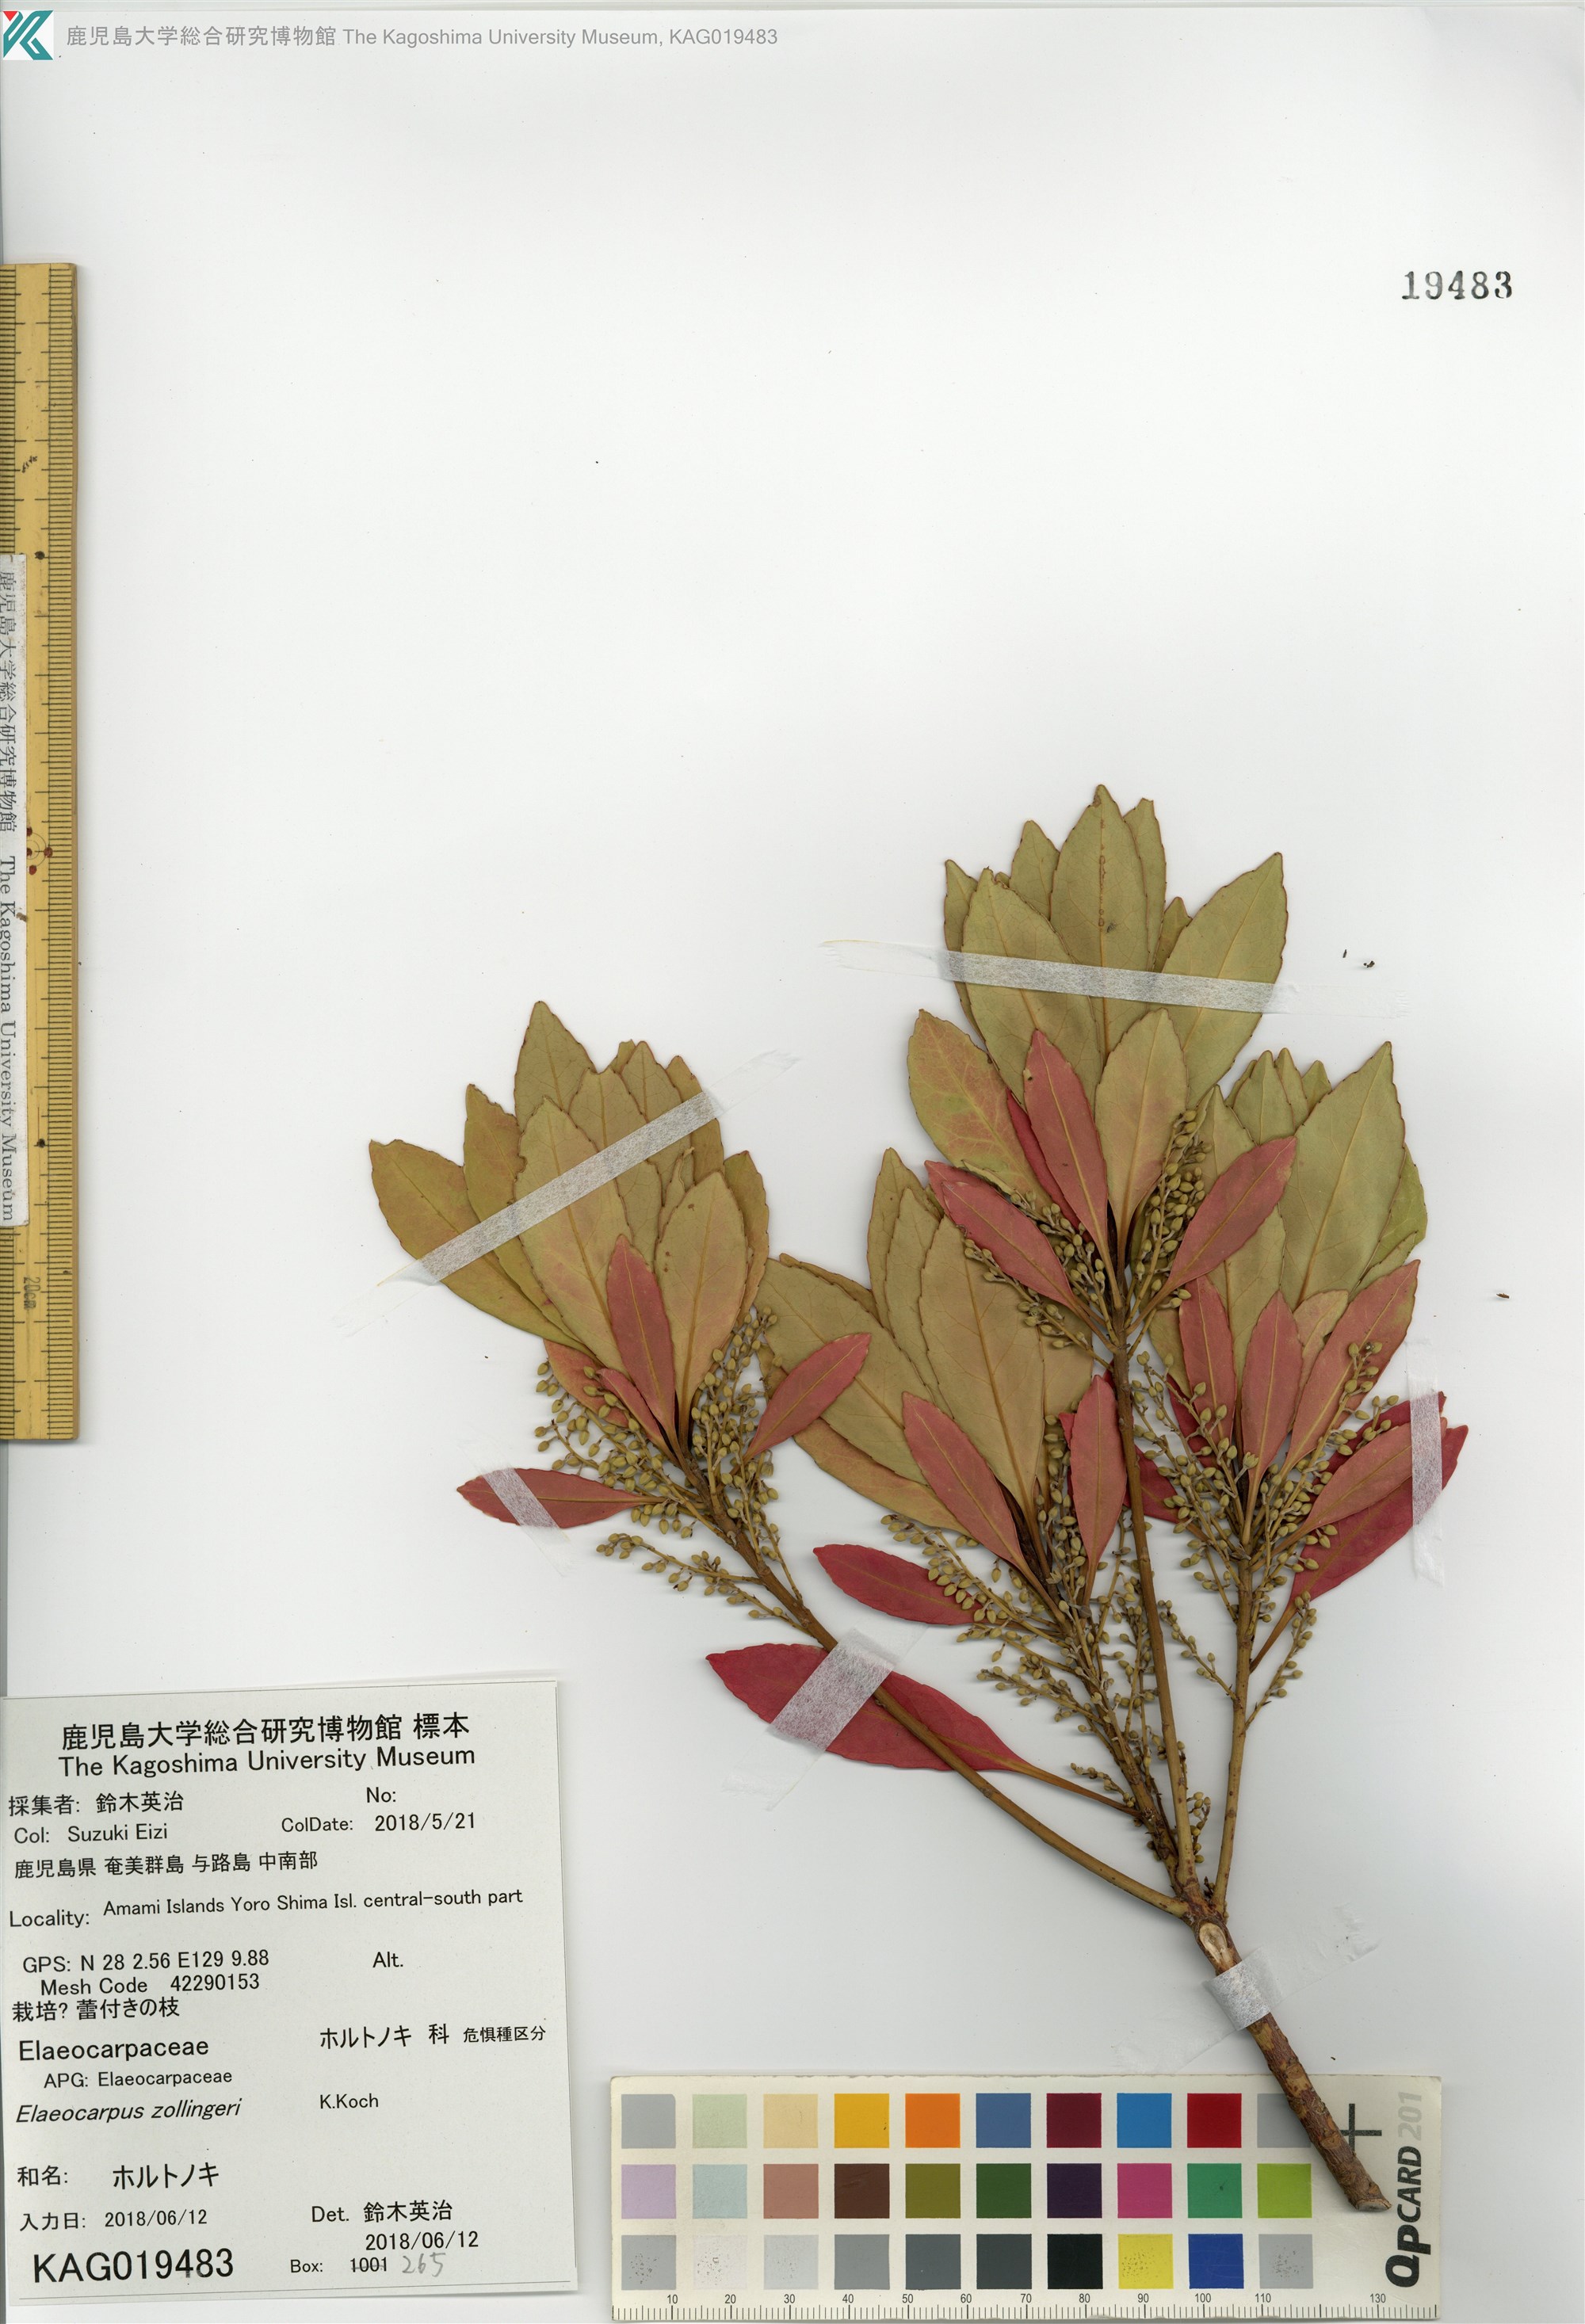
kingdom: Plantae
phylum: Tracheophyta
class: Magnoliopsida
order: Oxalidales
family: Elaeocarpaceae
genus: Elaeocarpus
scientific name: Elaeocarpus decipiens
